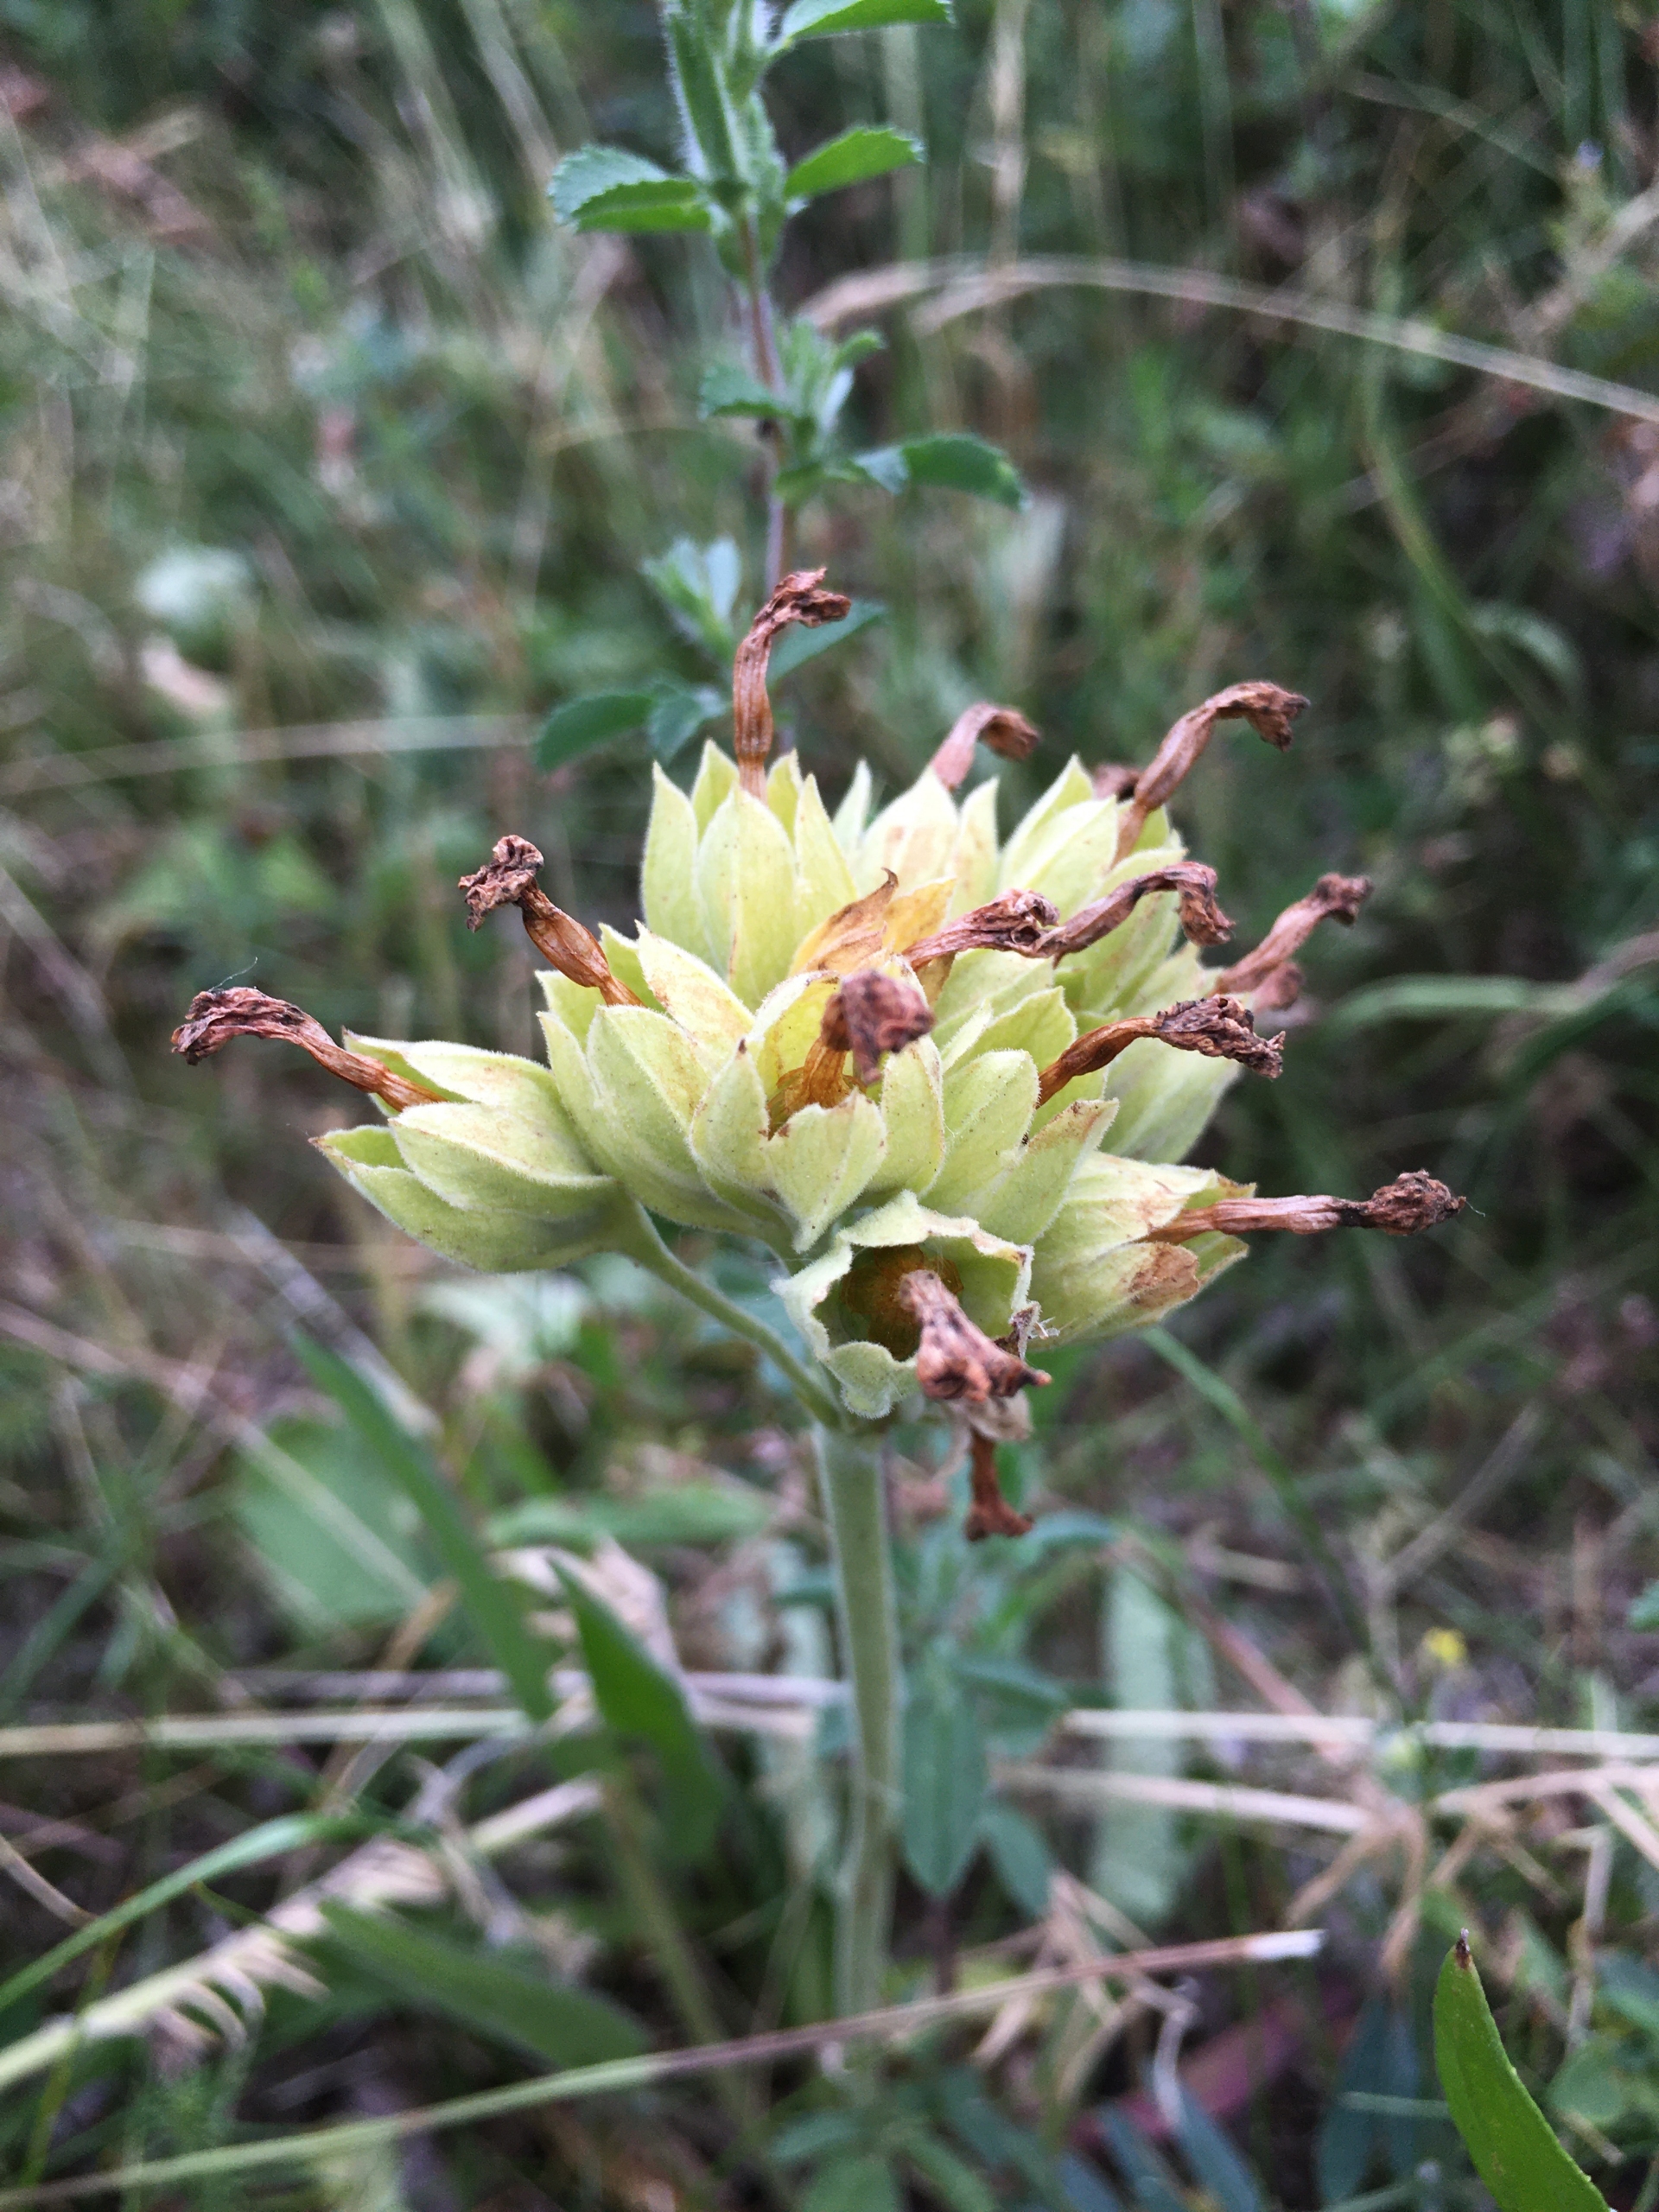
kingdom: Plantae
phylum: Tracheophyta
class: Magnoliopsida
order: Ericales
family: Primulaceae
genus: Primula
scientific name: Primula veris
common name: Hulkravet kodriver
